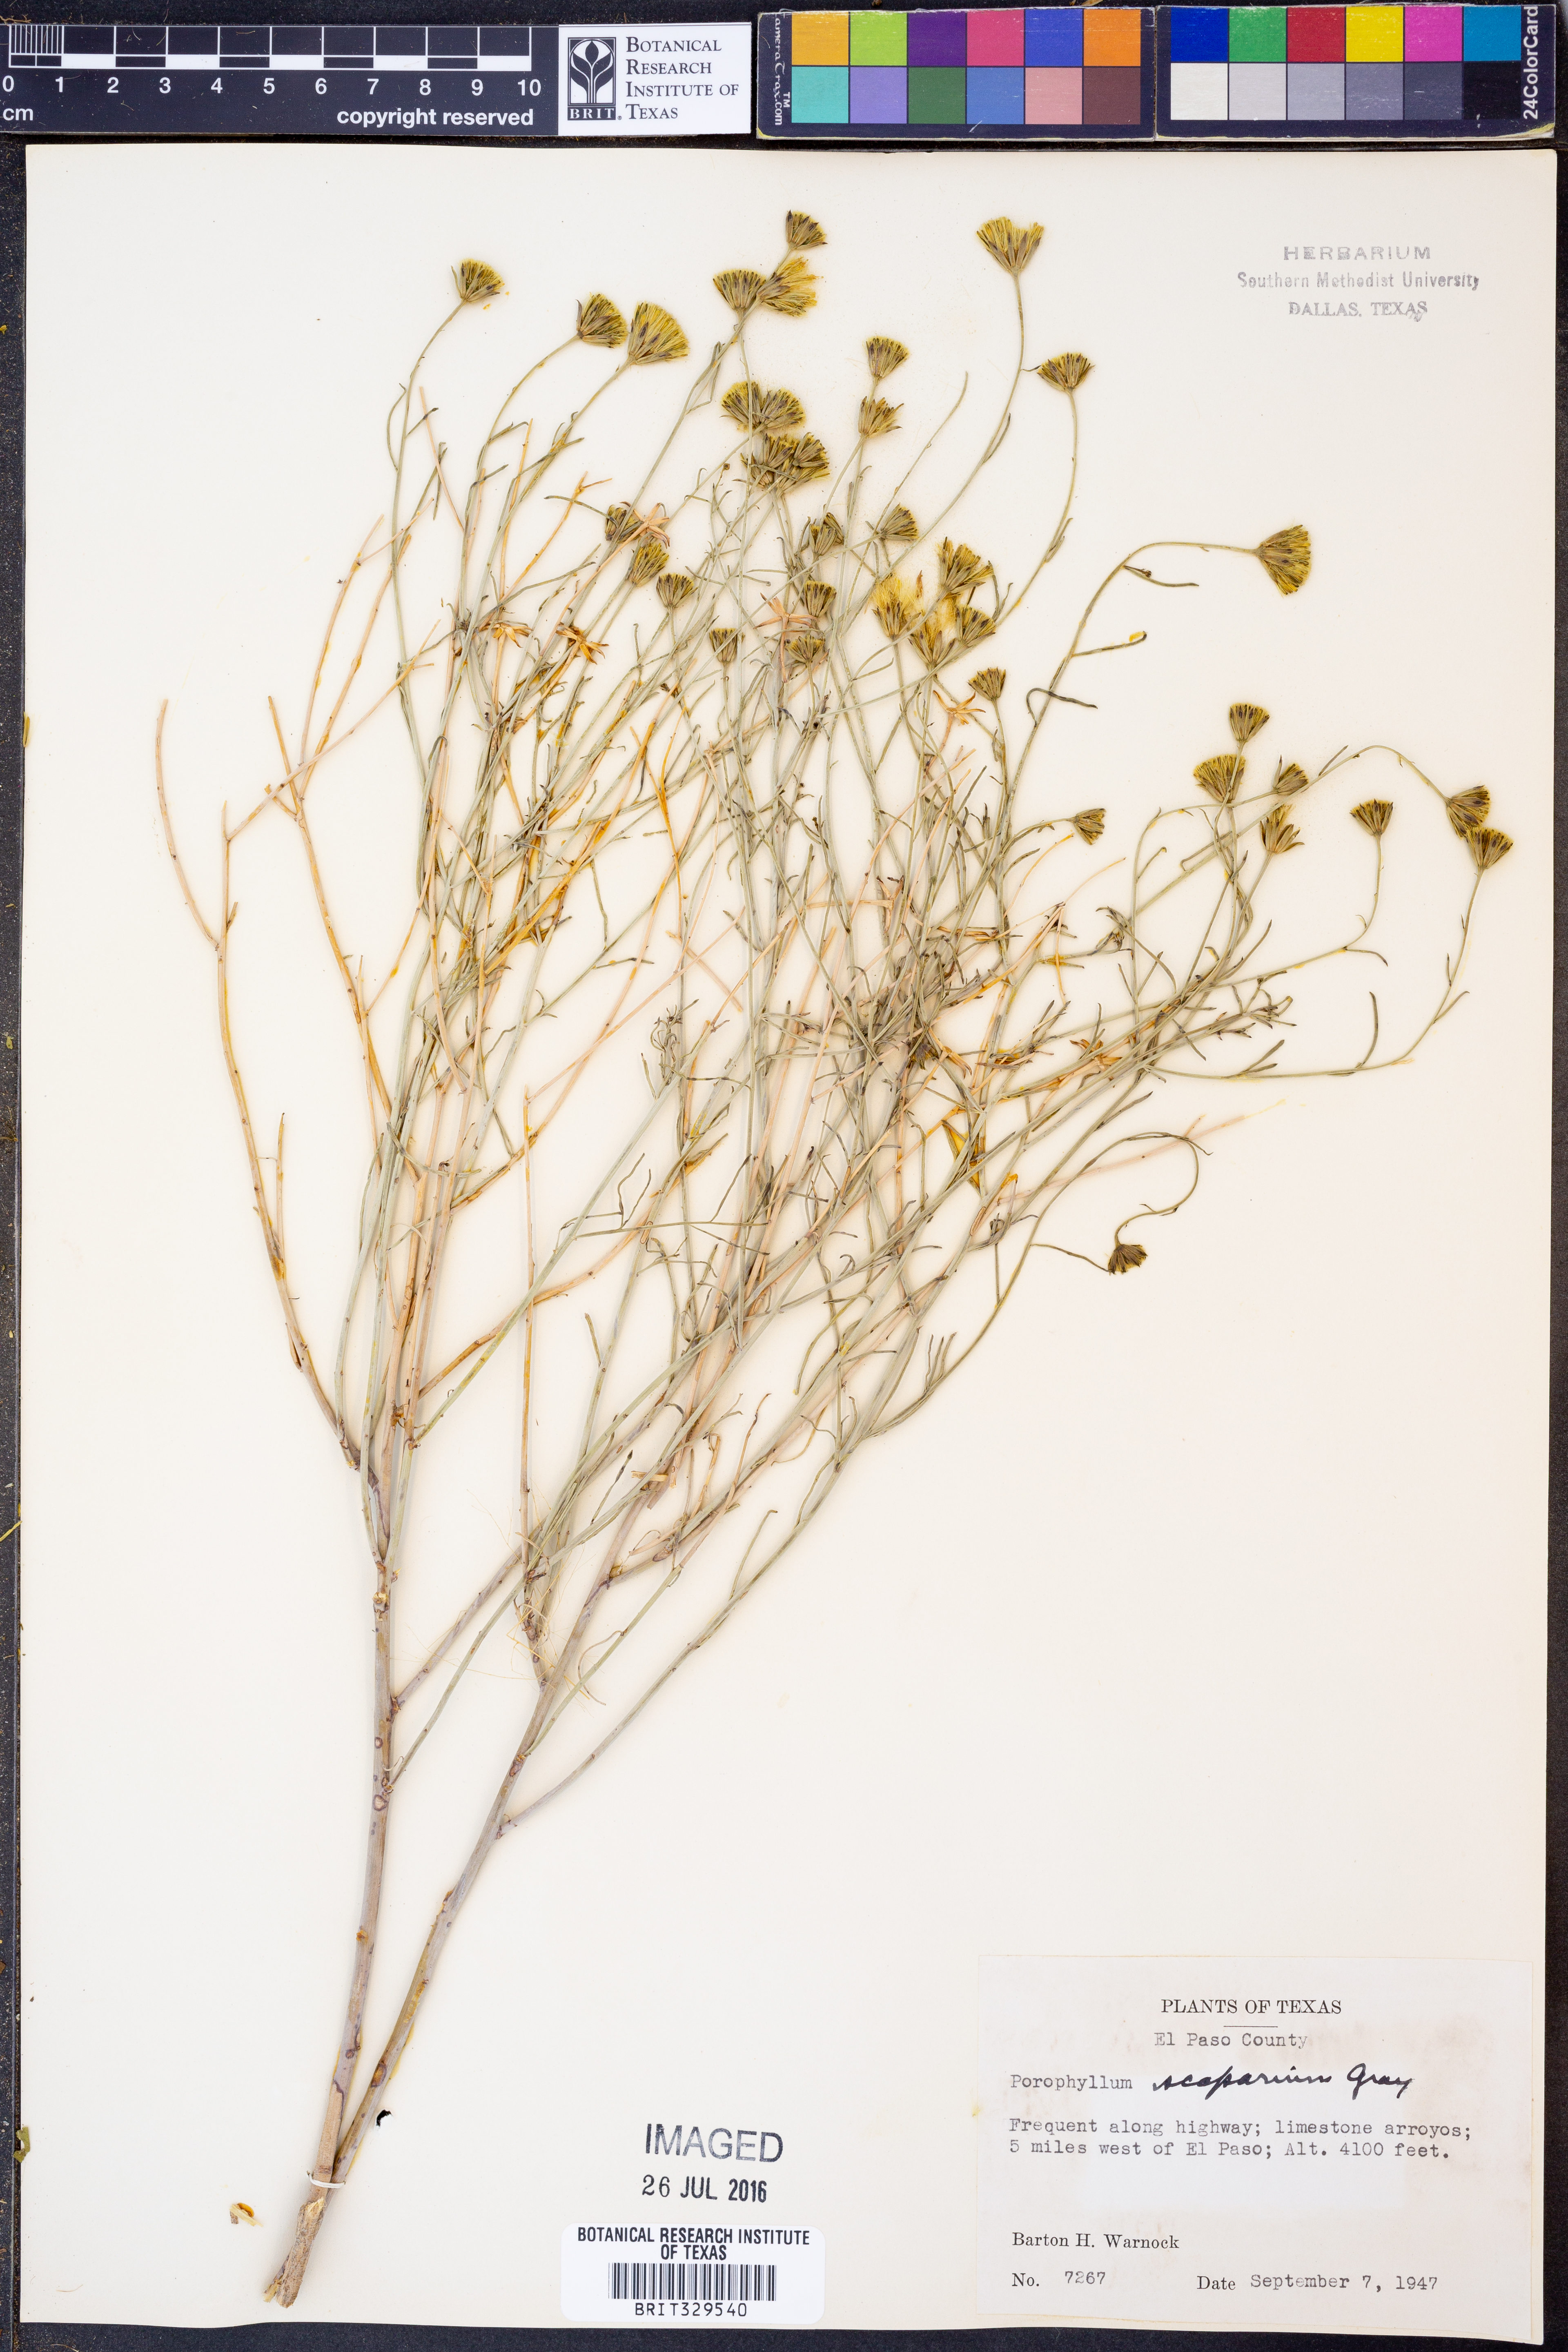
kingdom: Plantae
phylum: Tracheophyta
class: Magnoliopsida
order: Asterales
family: Asteraceae
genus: Porophyllum
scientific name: Porophyllum scoparium
